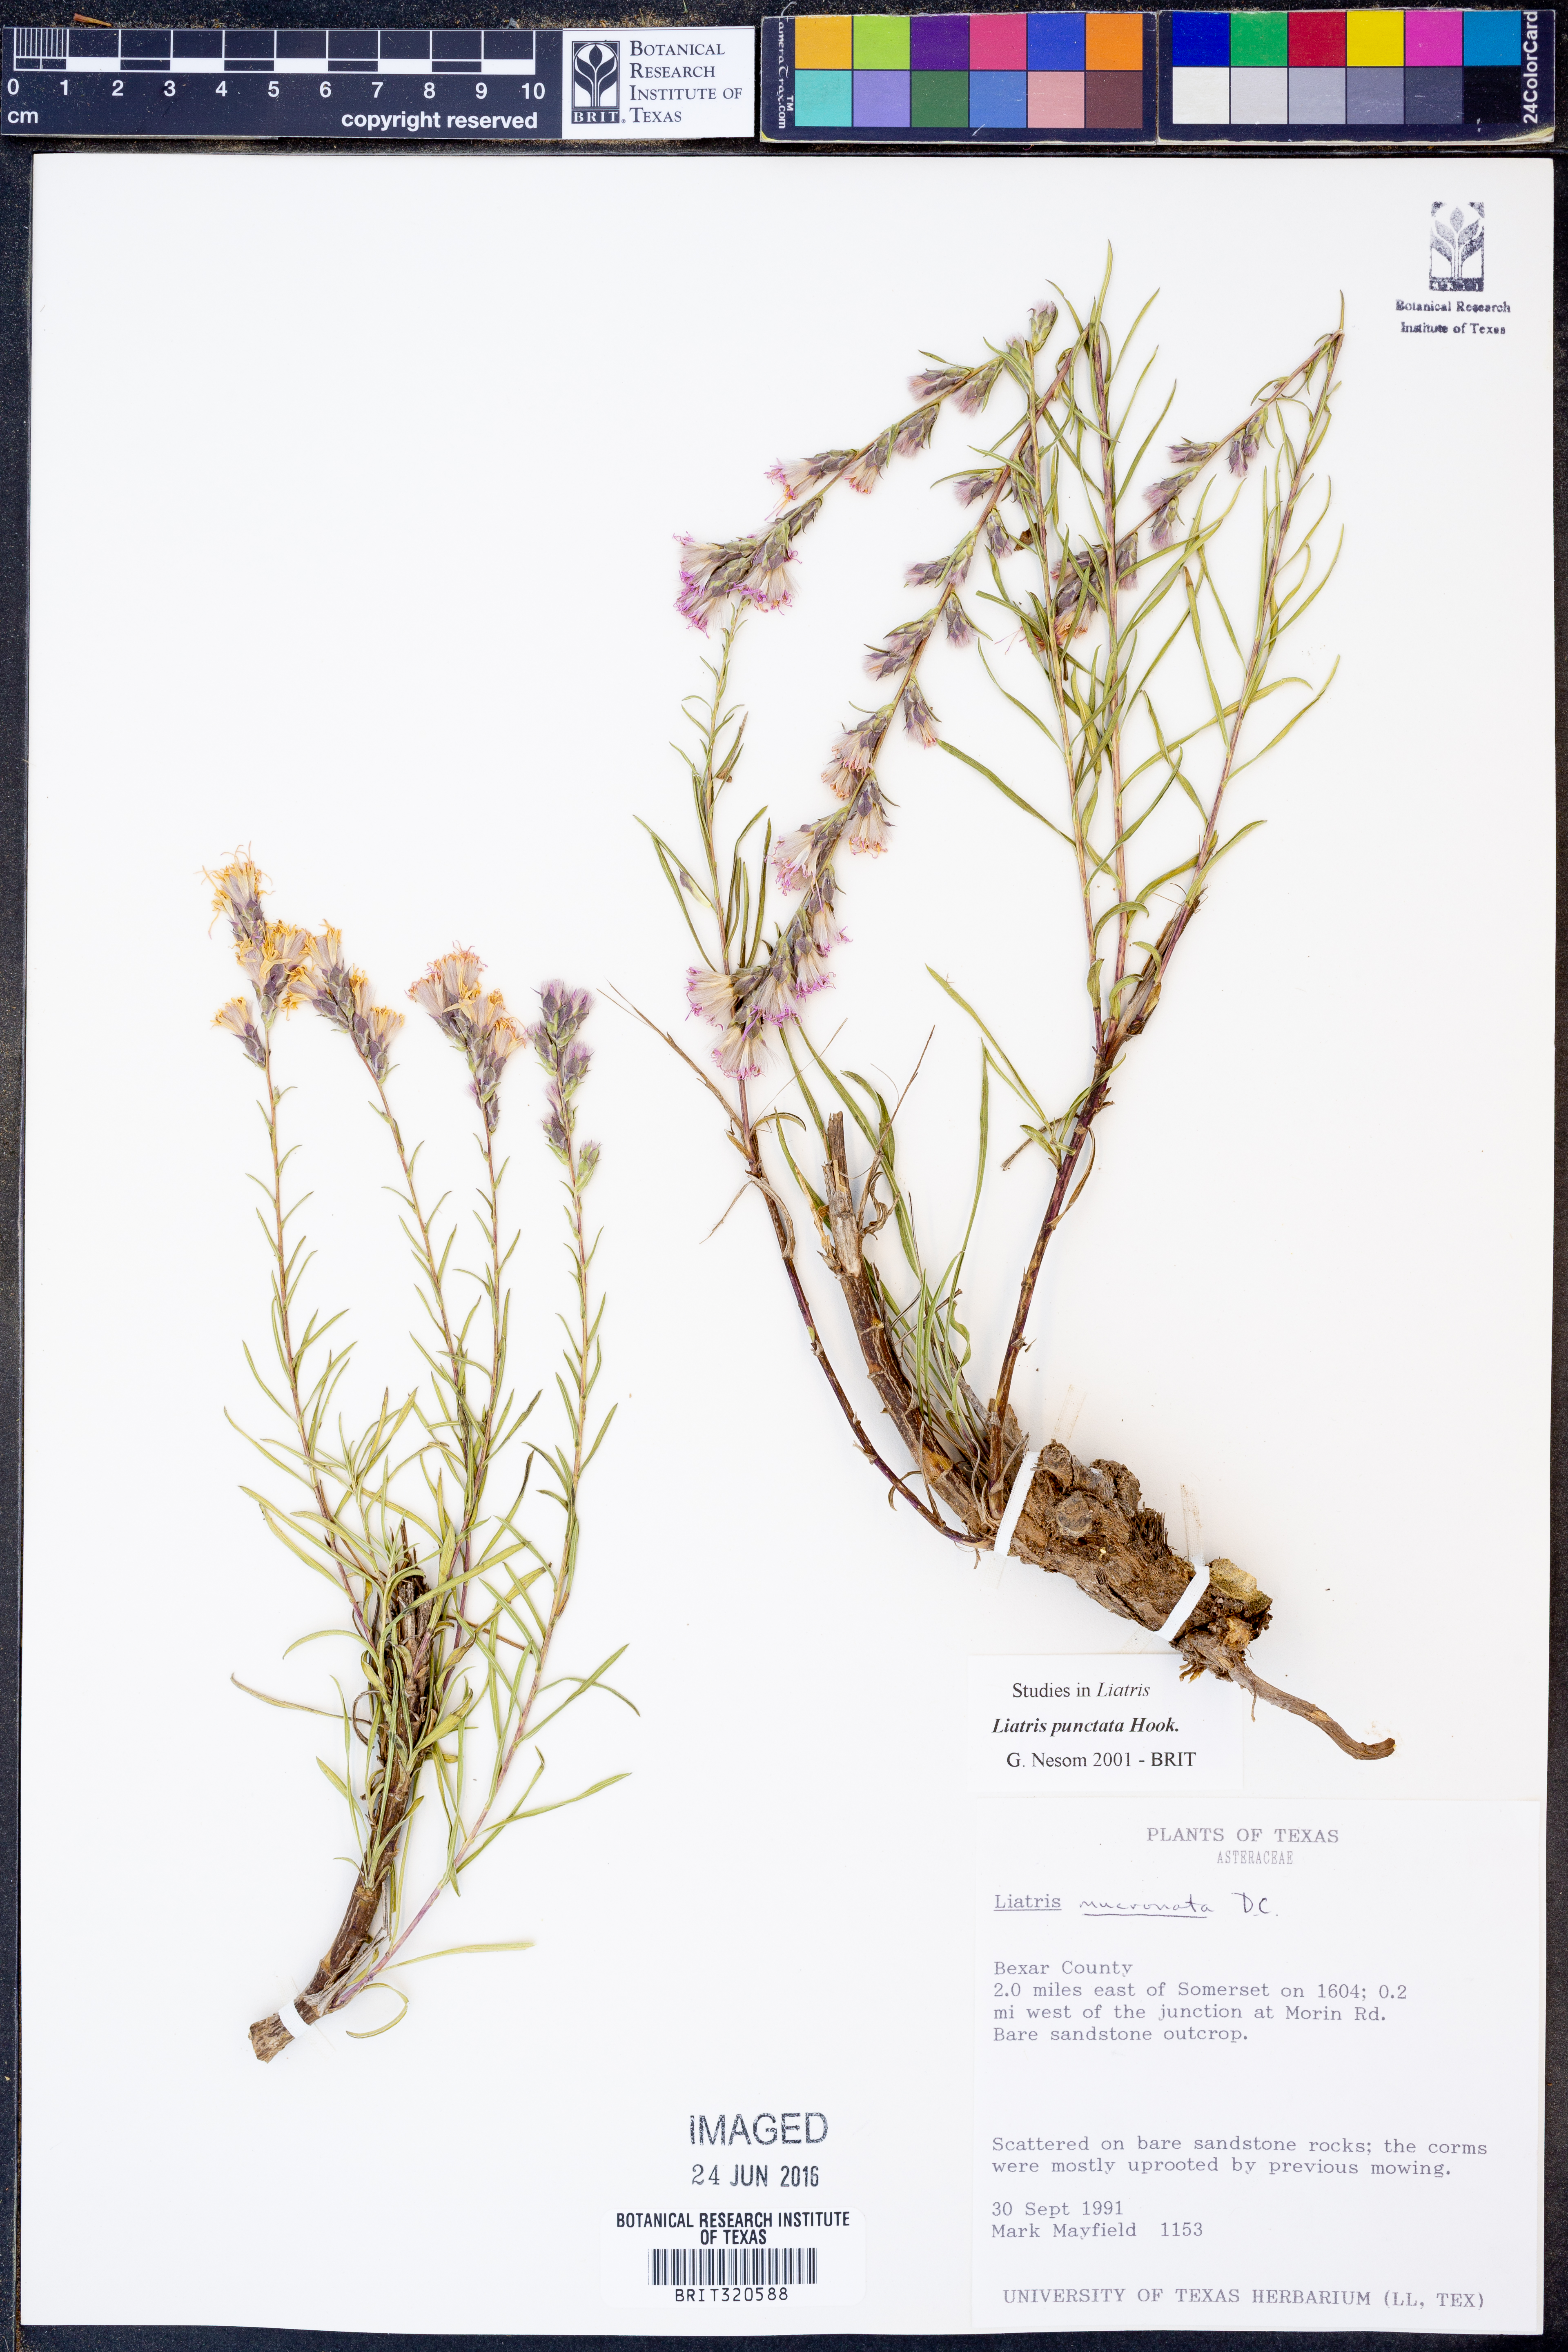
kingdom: Plantae
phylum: Tracheophyta
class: Magnoliopsida
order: Asterales
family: Asteraceae
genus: Liatris
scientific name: Liatris punctata
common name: Dotted gayfeather
